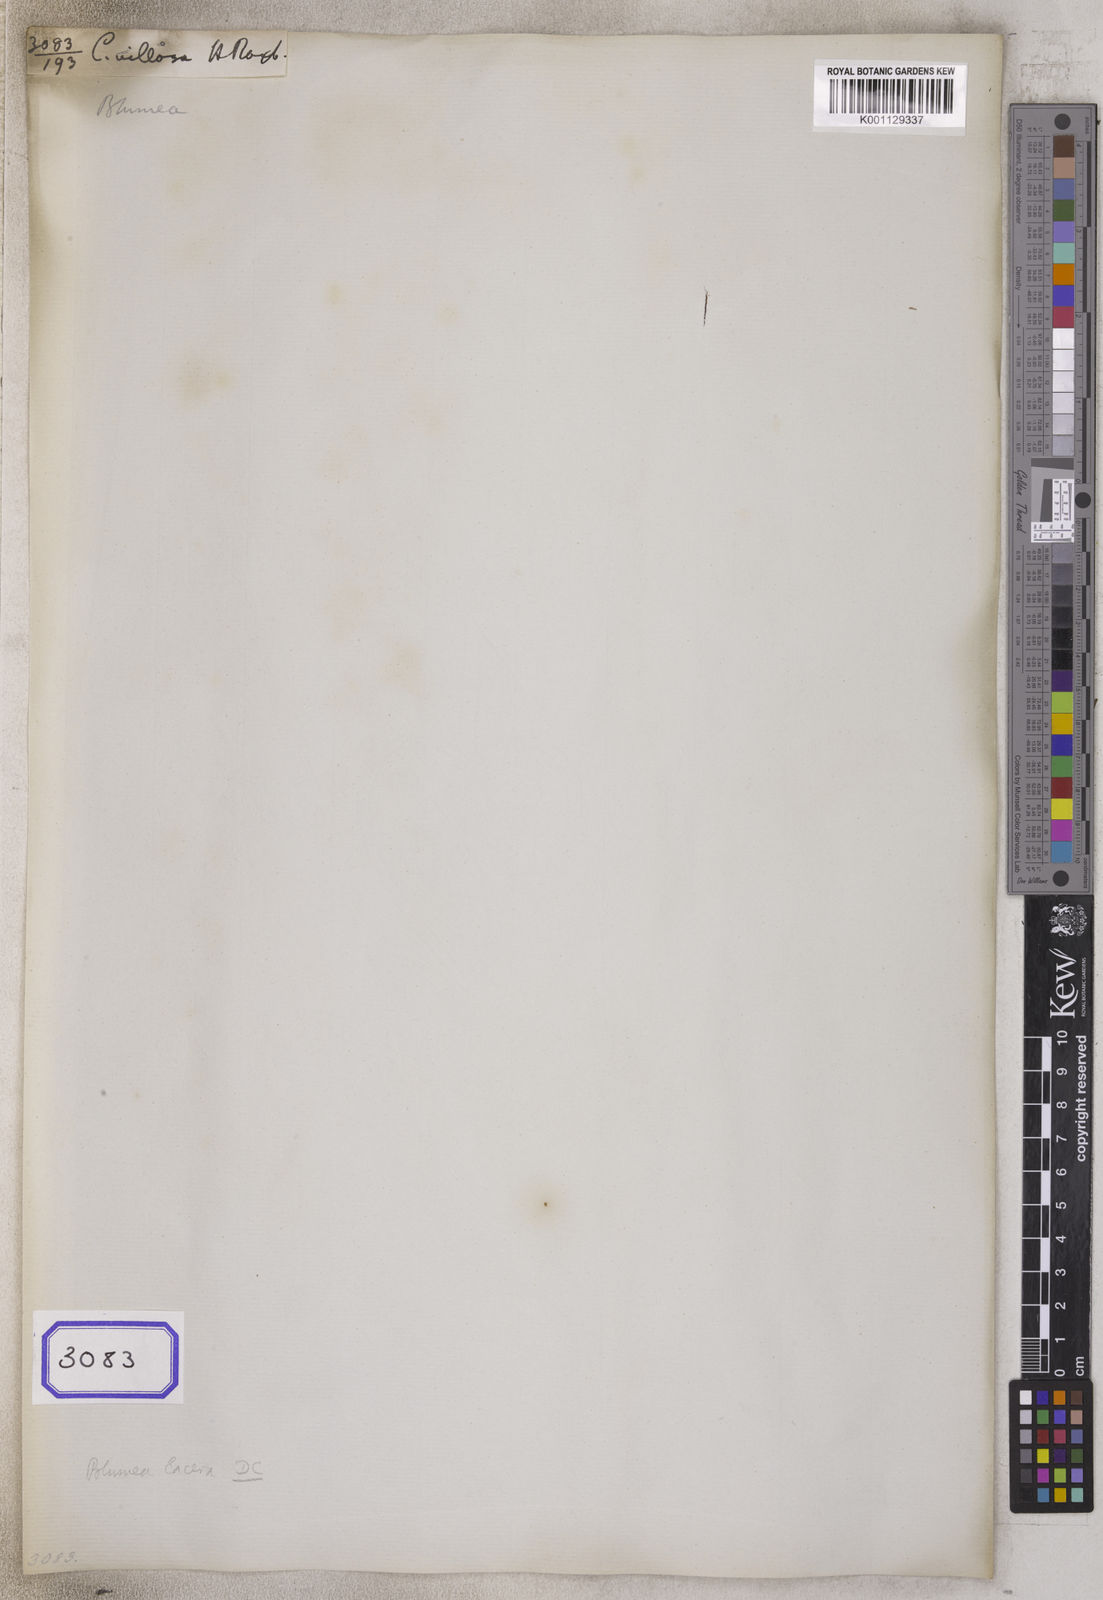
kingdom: Plantae
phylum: Tracheophyta
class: Magnoliopsida
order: Asterales
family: Asteraceae
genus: Pseudoconyza
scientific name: Pseudoconyza viscosa
